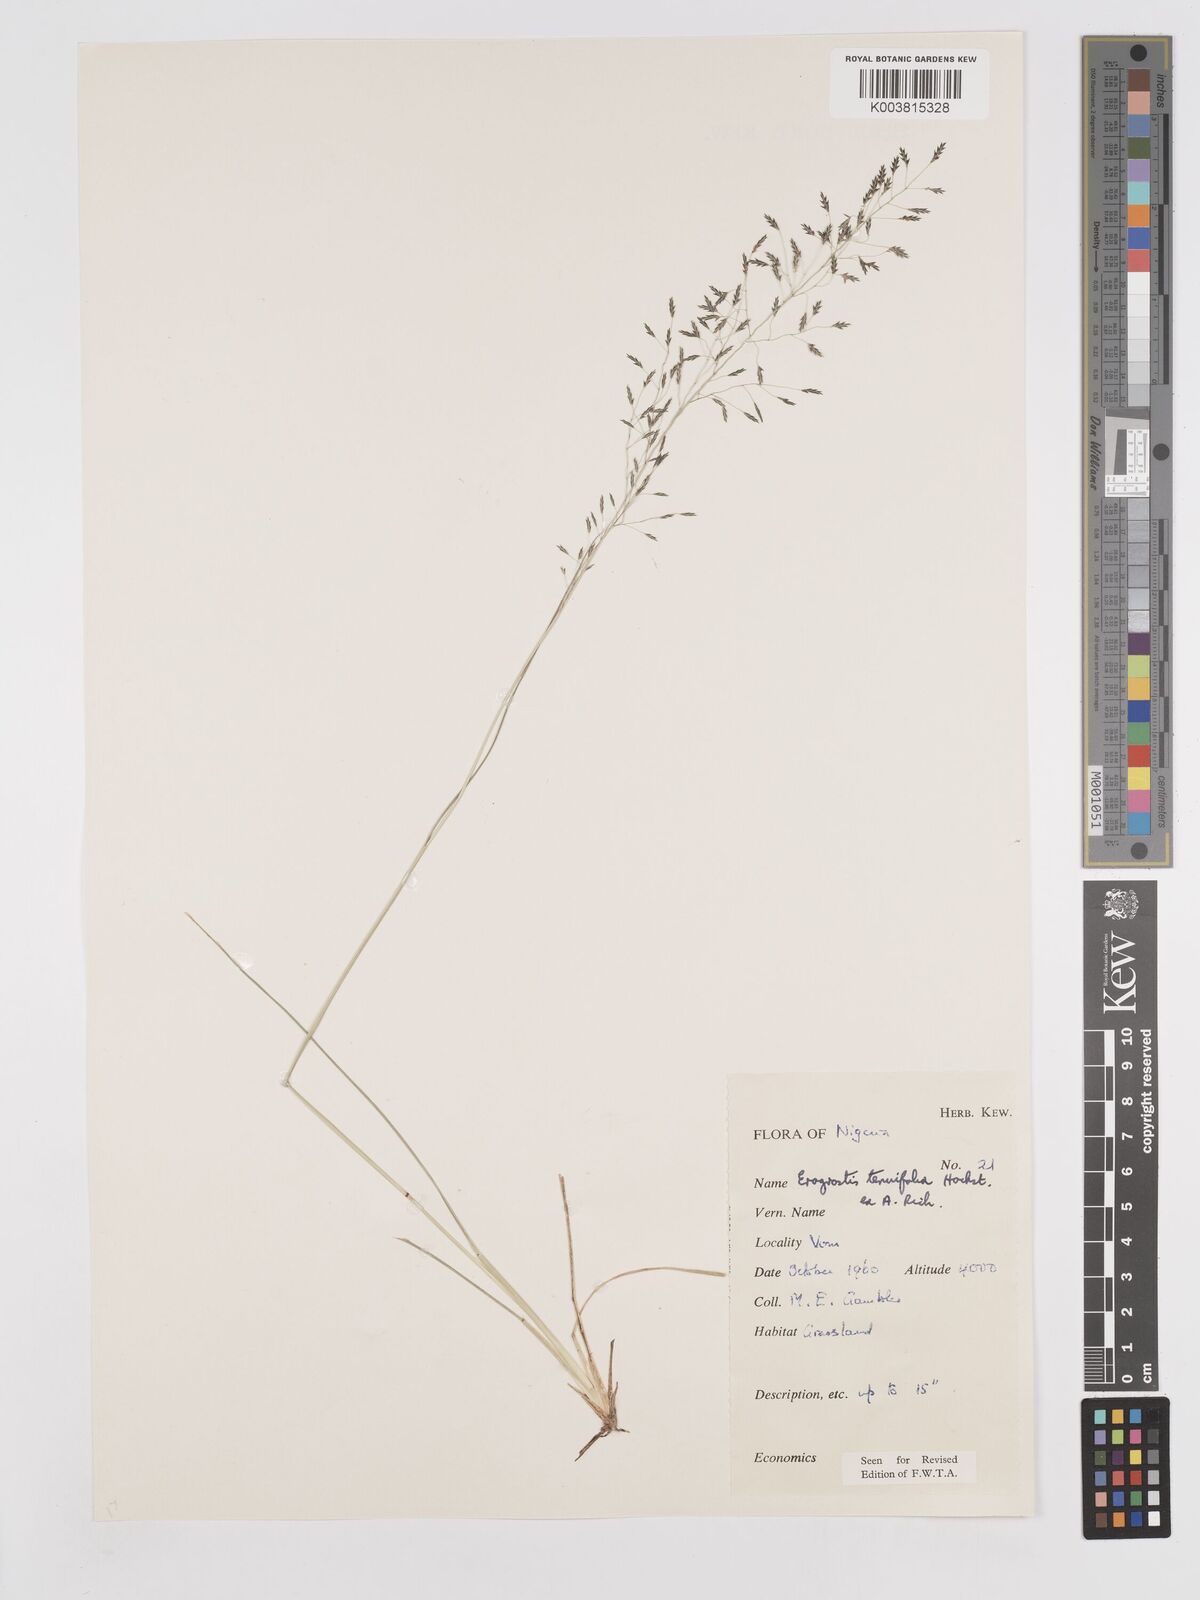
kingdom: Plantae
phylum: Tracheophyta
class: Liliopsida
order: Poales
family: Poaceae
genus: Eragrostis
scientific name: Eragrostis tenuifolia
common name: Elastic grass
